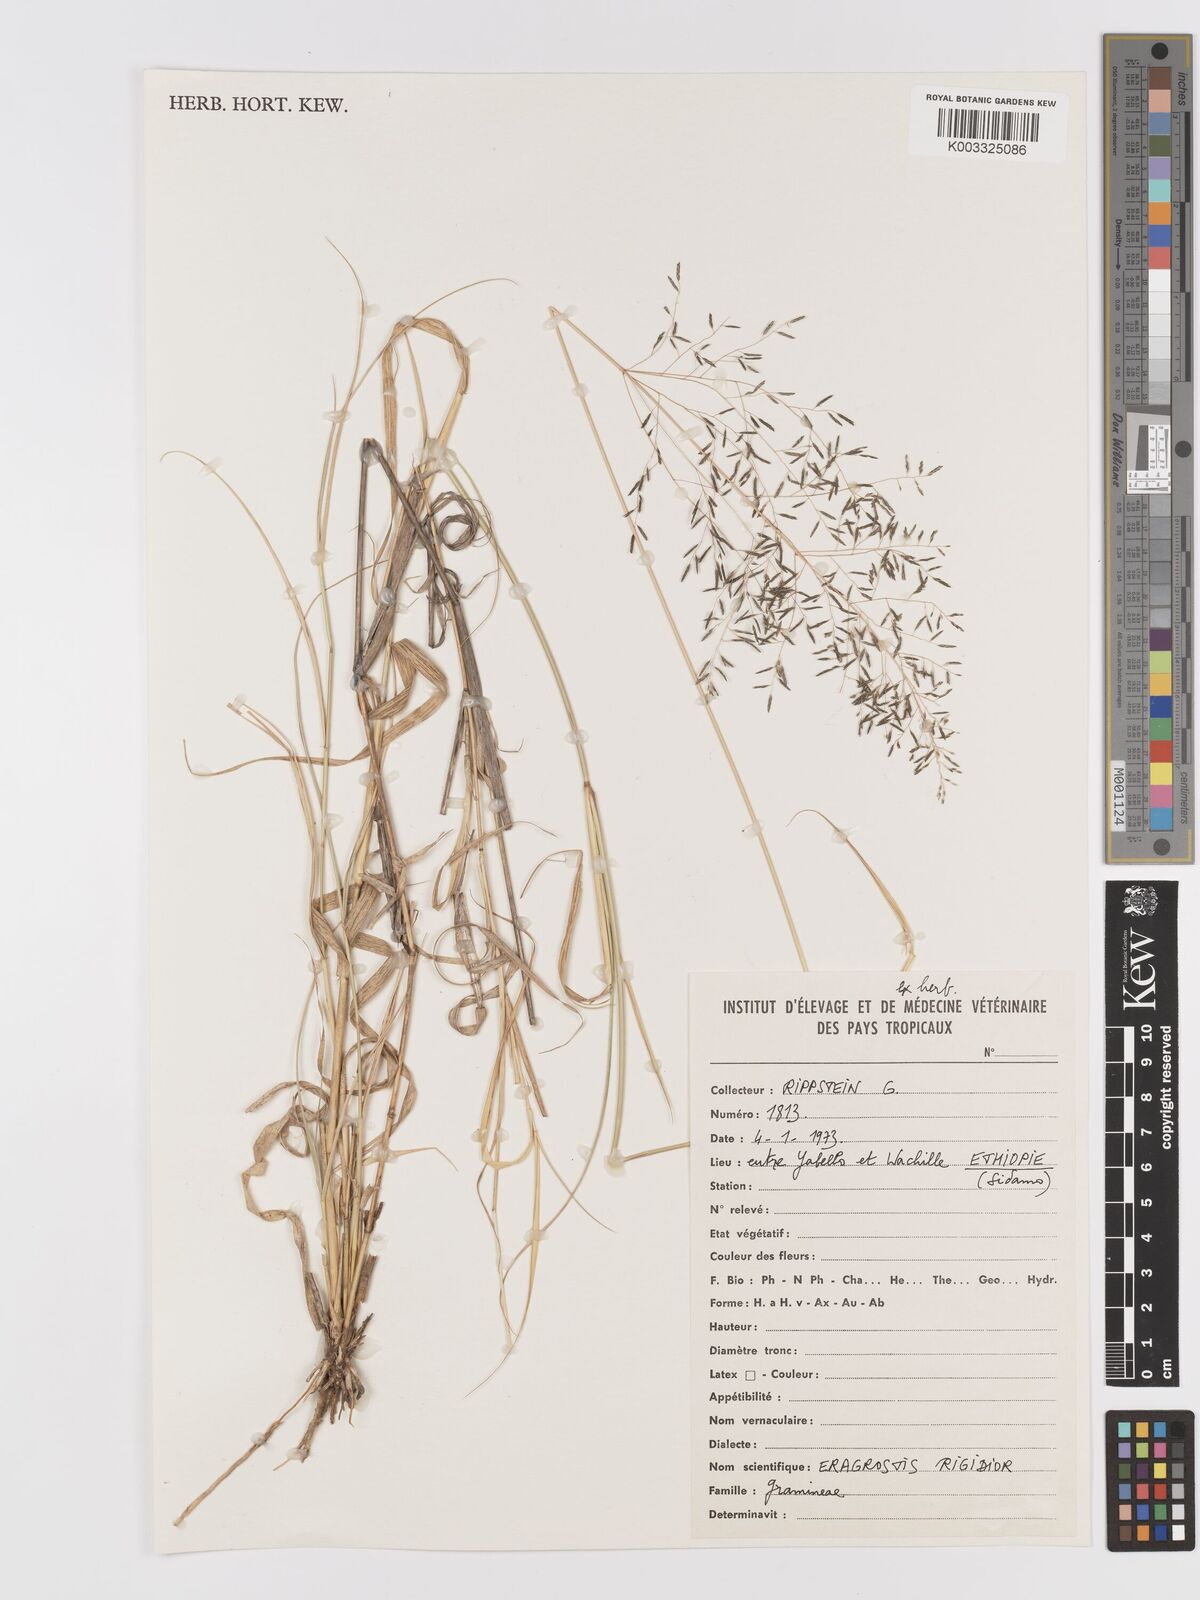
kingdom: Plantae
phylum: Tracheophyta
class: Liliopsida
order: Poales
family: Poaceae
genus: Eragrostis
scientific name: Eragrostis cylindriflora
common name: Cylinderflower lovegrass
